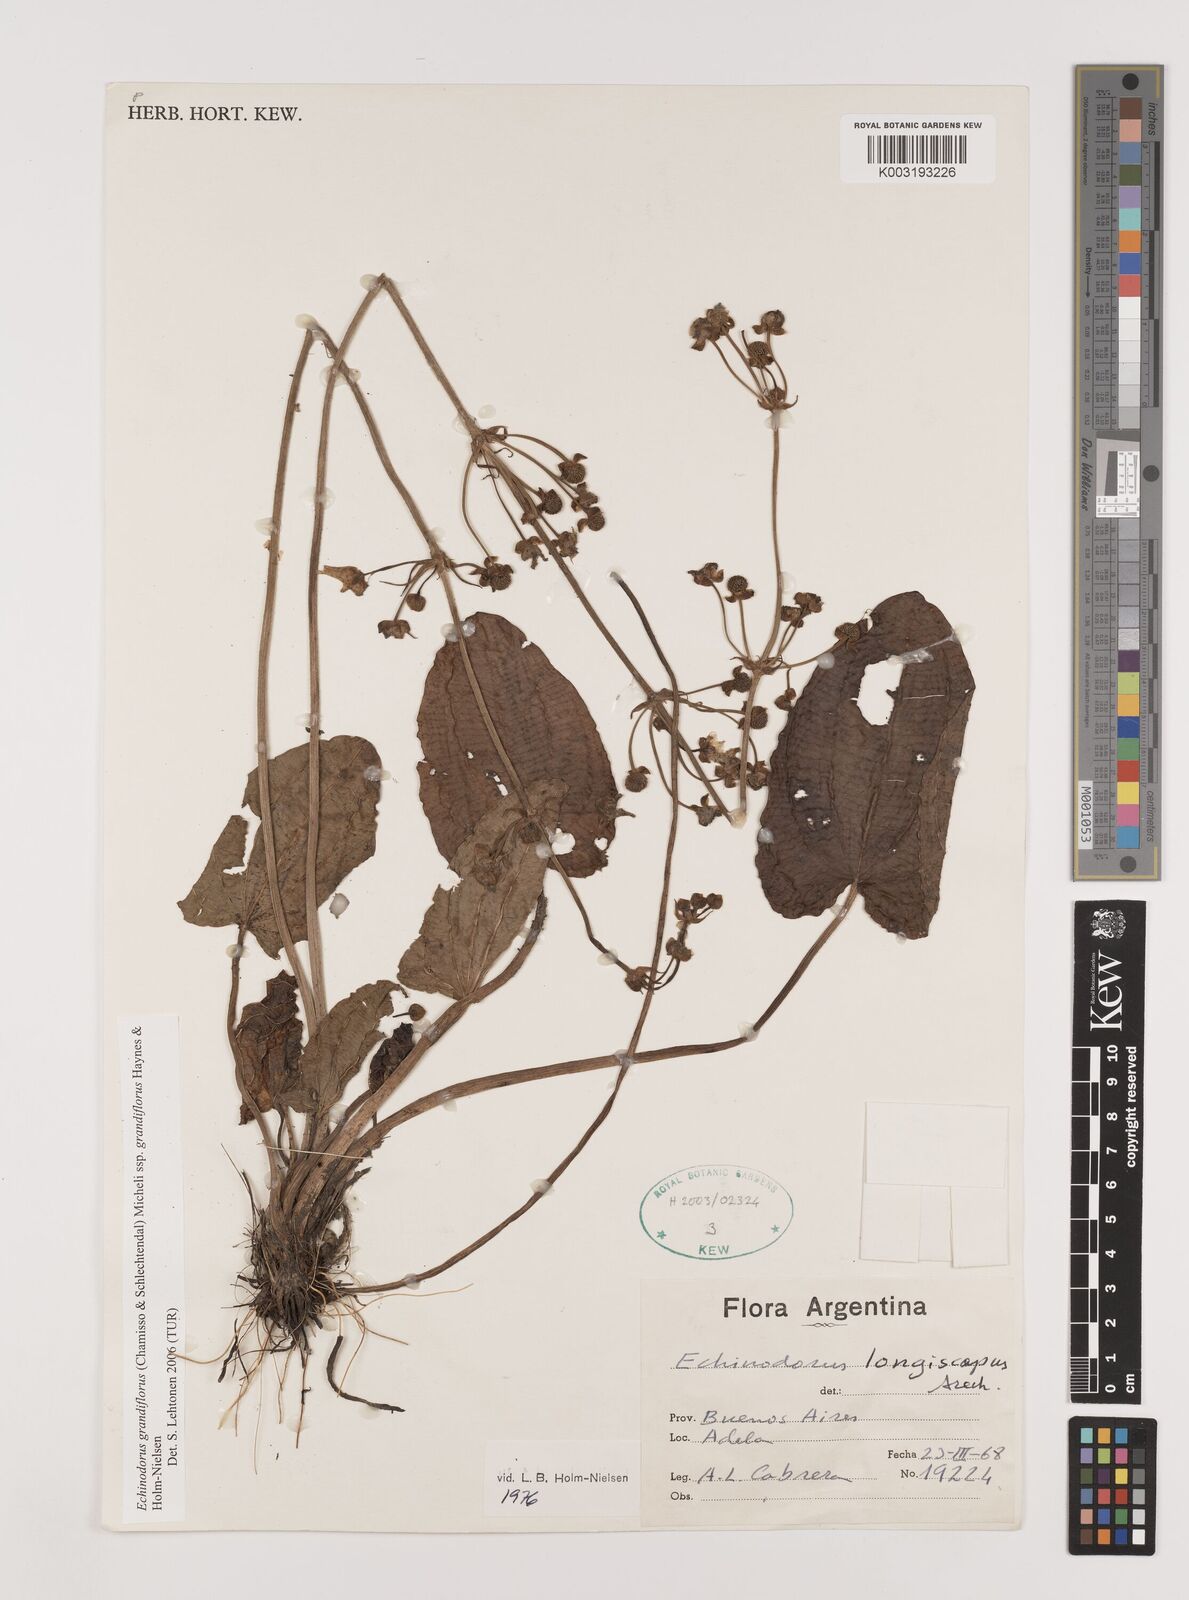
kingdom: Plantae
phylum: Tracheophyta
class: Liliopsida
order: Alismatales
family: Alismataceae
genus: Aquarius
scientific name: Aquarius grandiflorus
